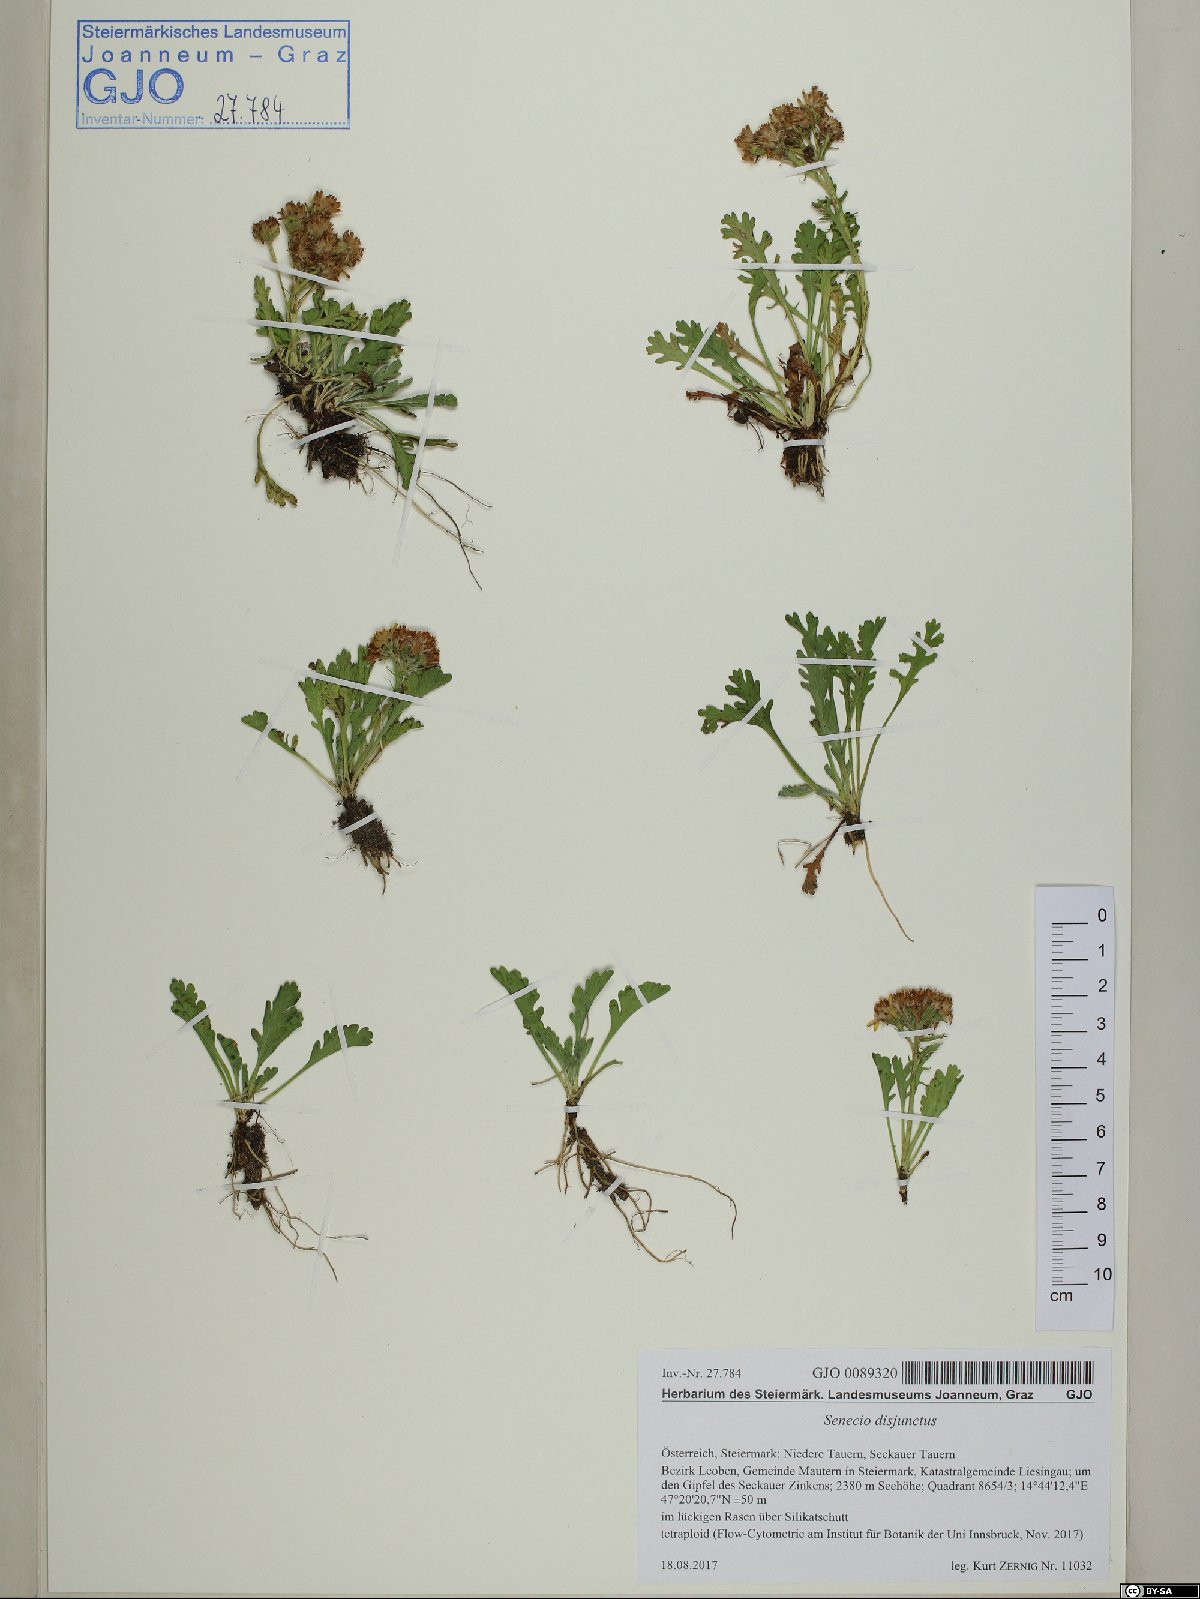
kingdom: Plantae
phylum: Tracheophyta
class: Magnoliopsida
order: Asterales
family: Asteraceae
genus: Jacobaea
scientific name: Jacobaea disjuncta
